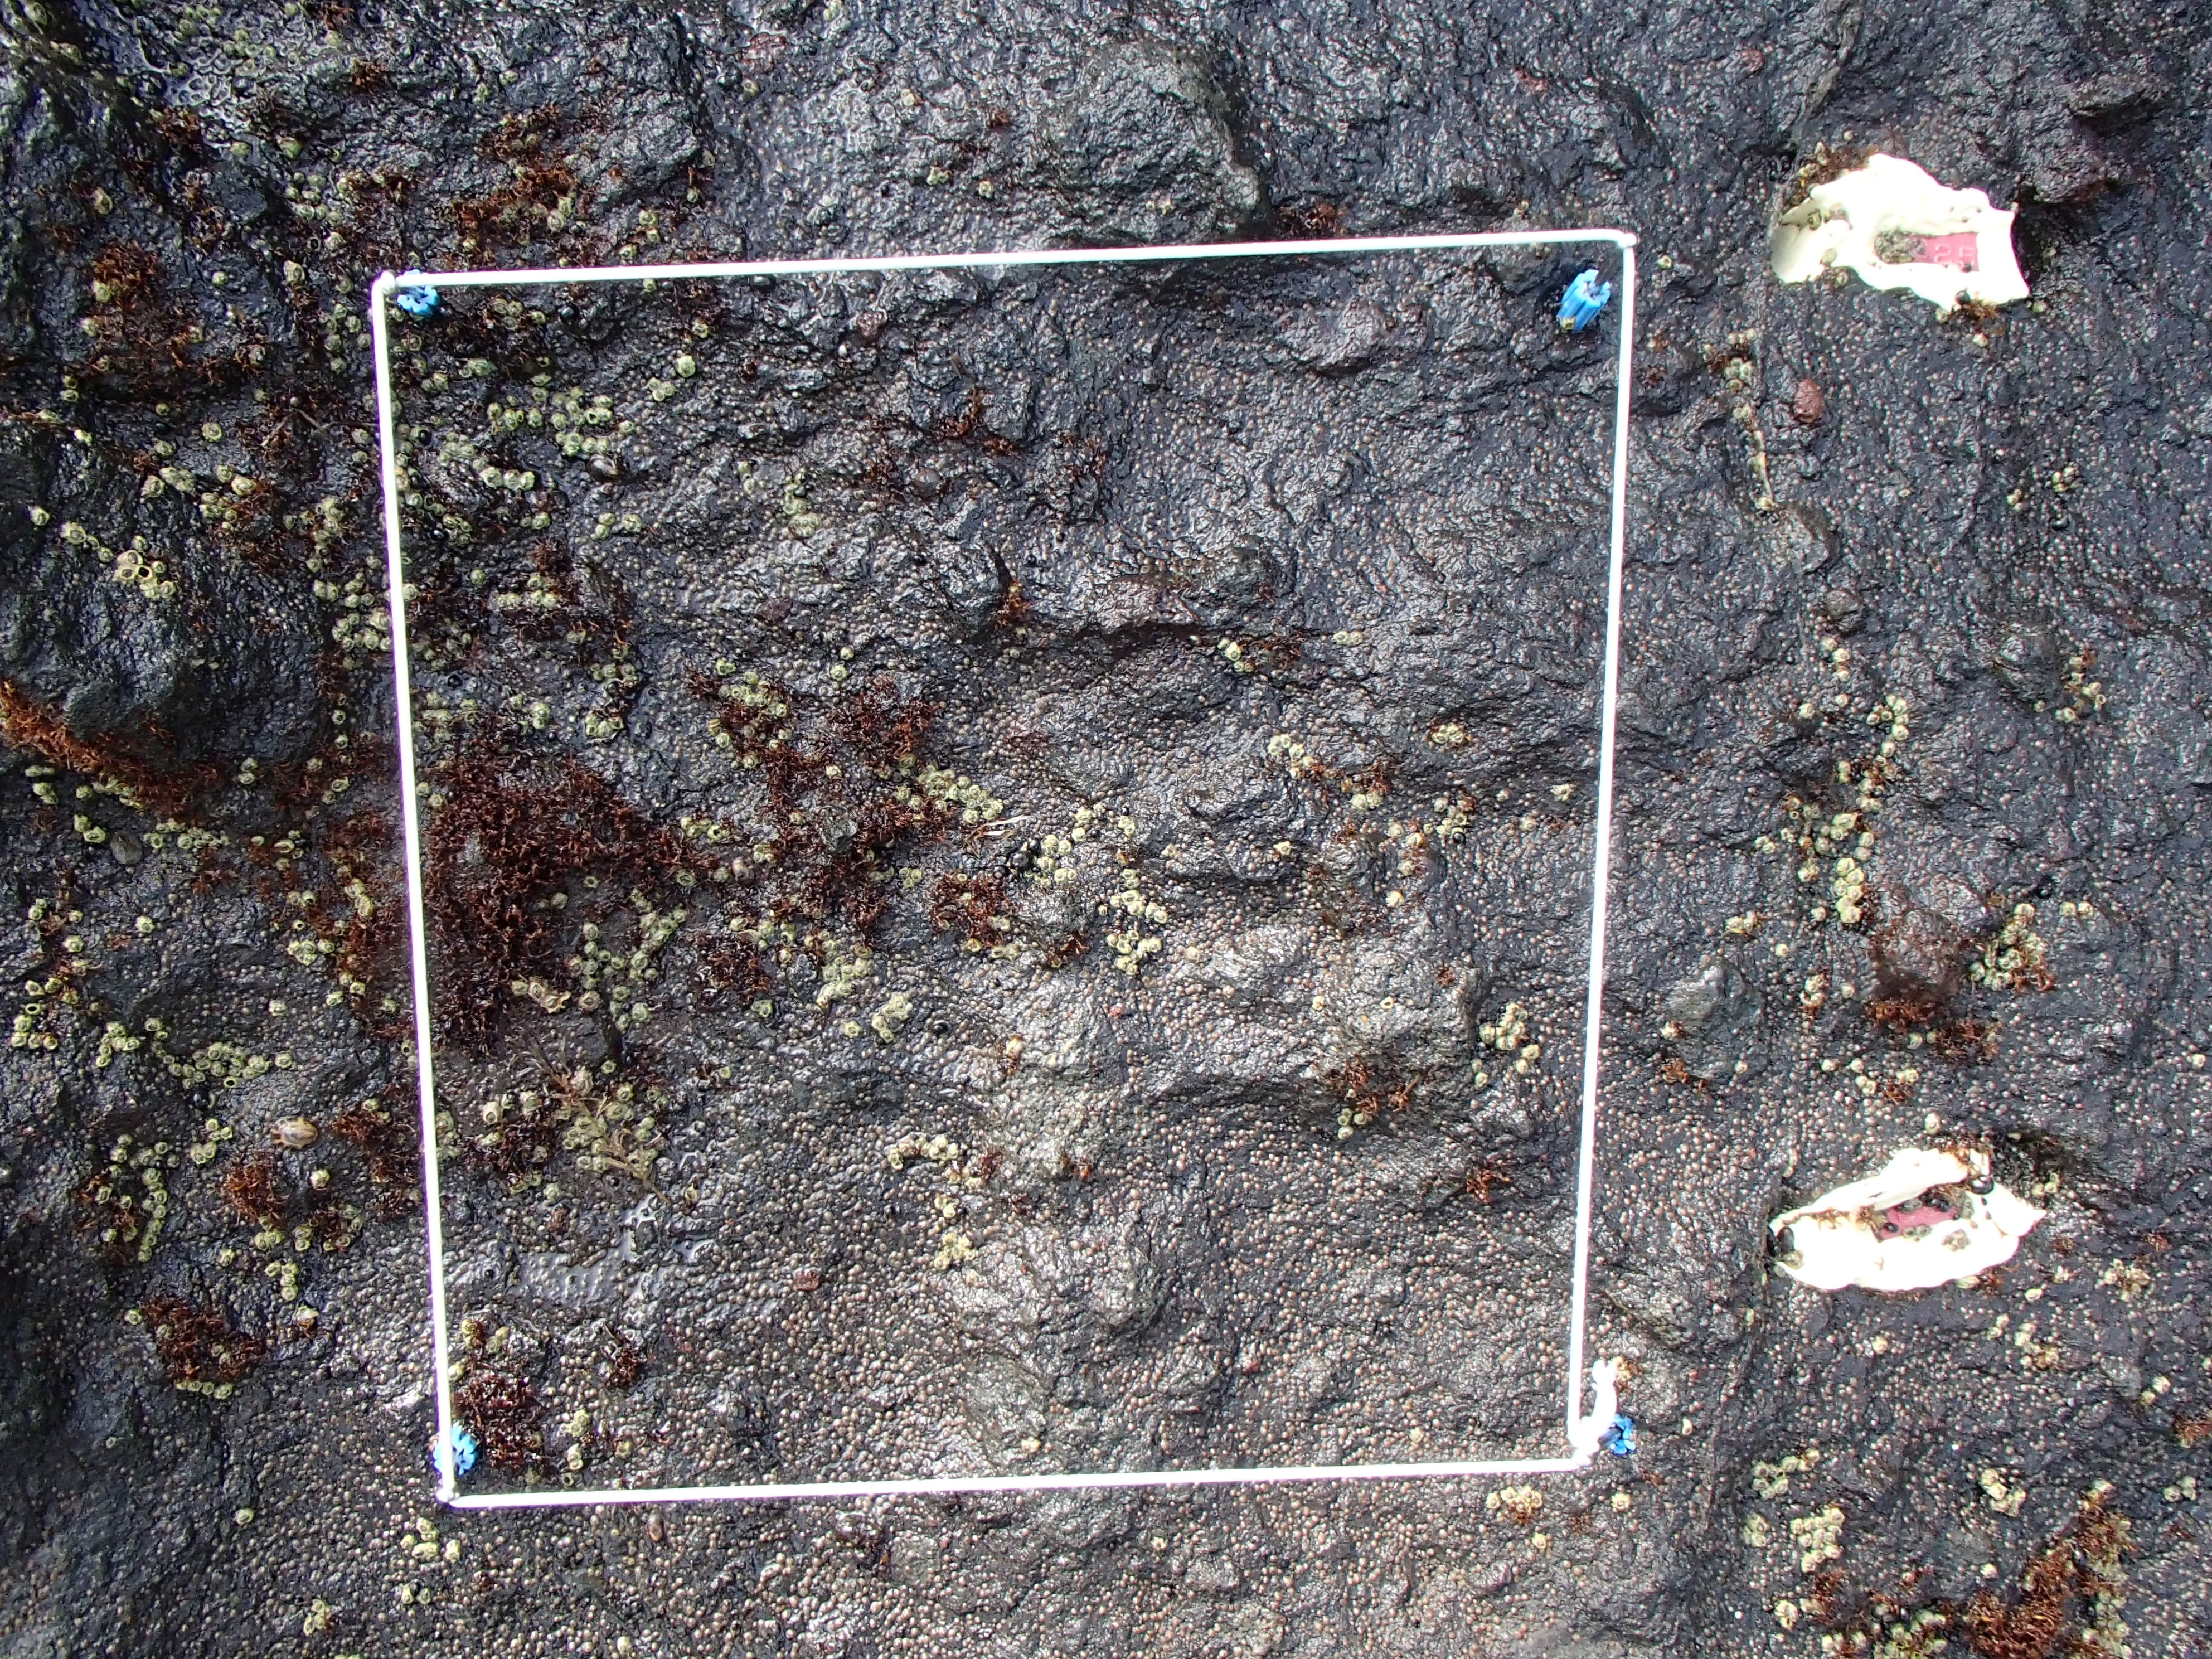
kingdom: Animalia
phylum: Arthropoda
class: Maxillopoda
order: Sessilia
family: Chthamalidae
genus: Chthamalus
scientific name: Chthamalus dalli
